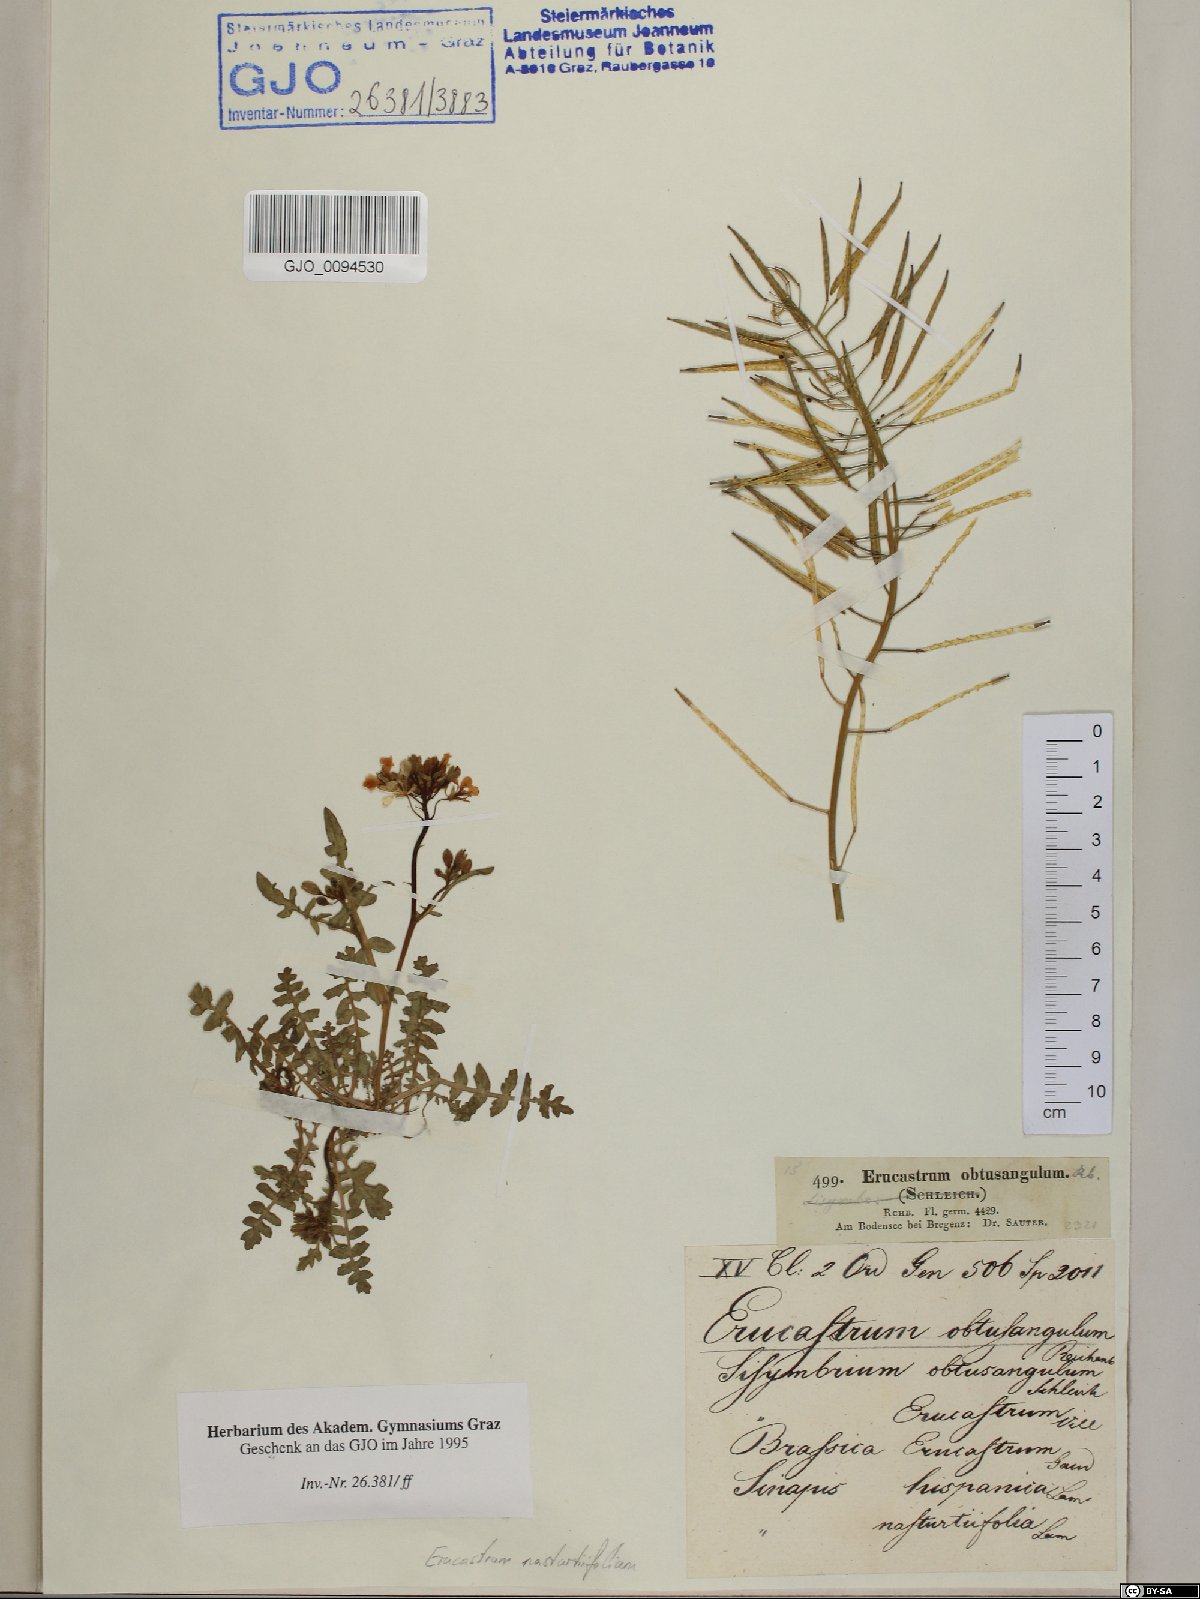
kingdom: Plantae
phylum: Tracheophyta
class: Magnoliopsida
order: Brassicales
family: Brassicaceae
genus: Erucastrum
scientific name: Erucastrum nasturtiifolium
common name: Watercress-leaf rocket
